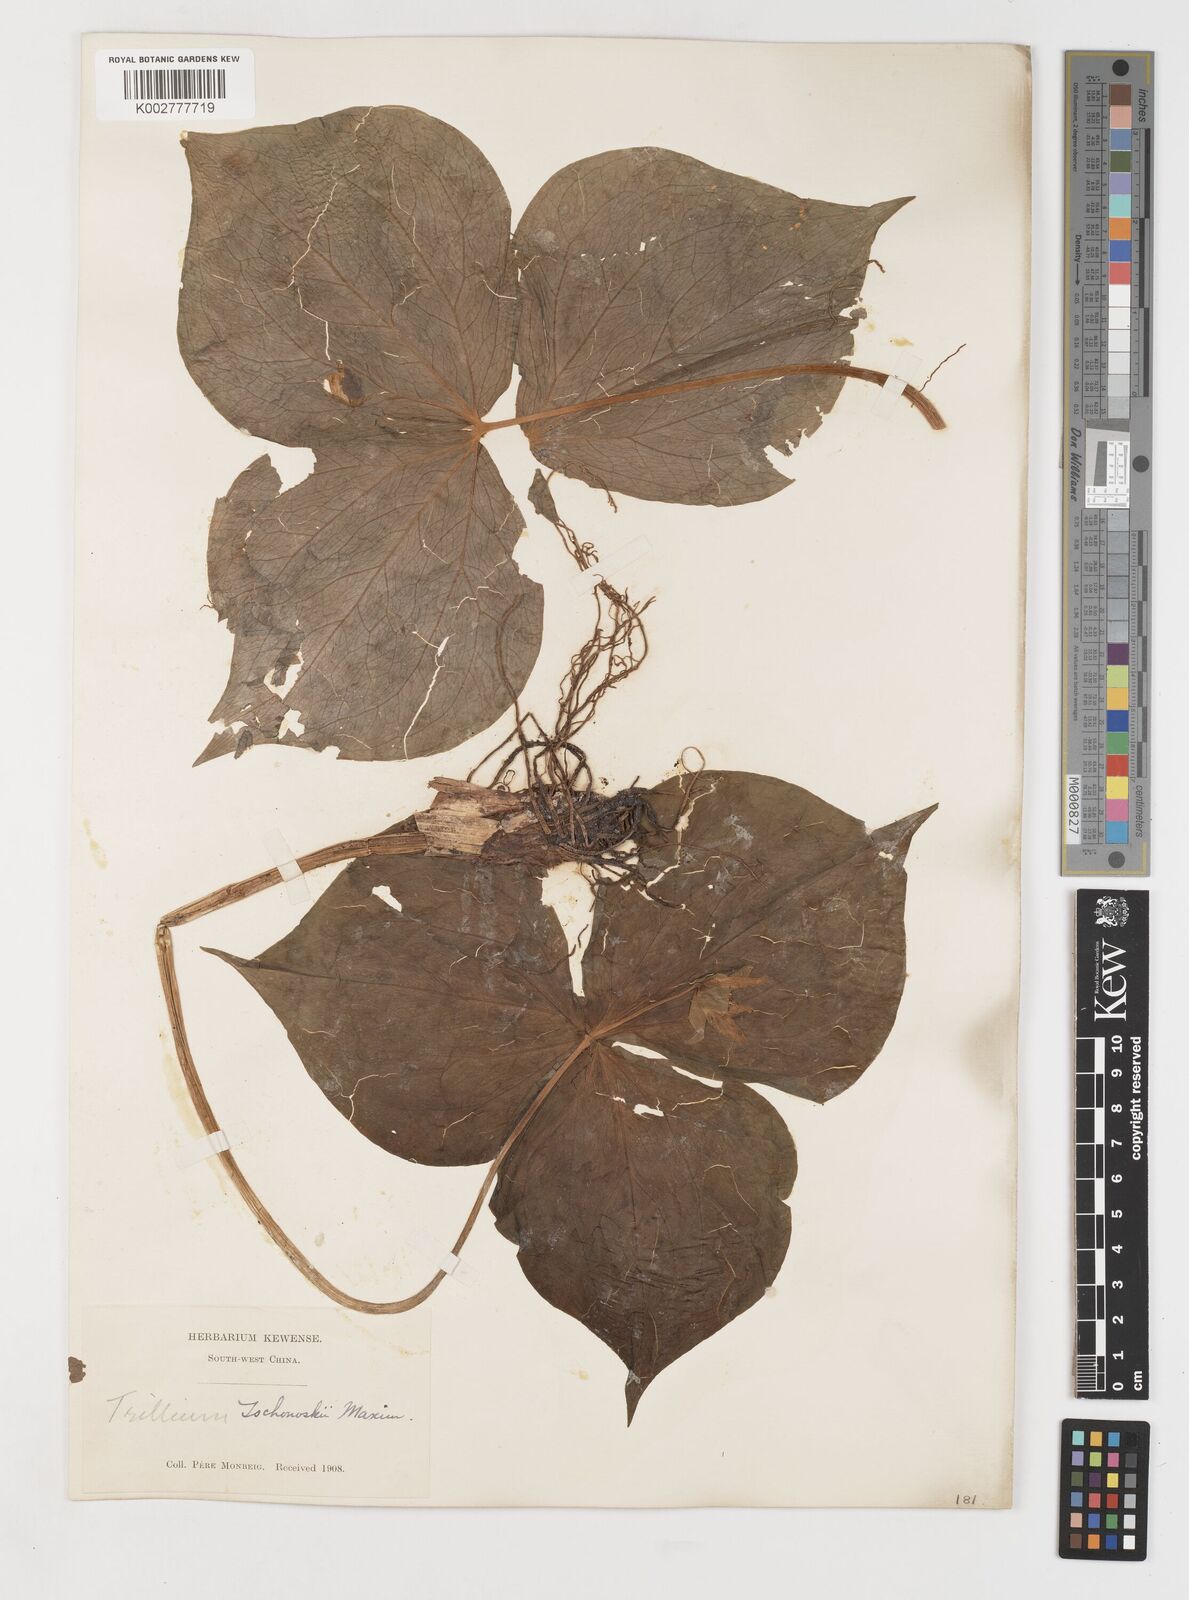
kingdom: Plantae
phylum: Tracheophyta
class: Liliopsida
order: Liliales
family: Melanthiaceae
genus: Trillium
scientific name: Trillium tschonoskii
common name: A pearl on head
